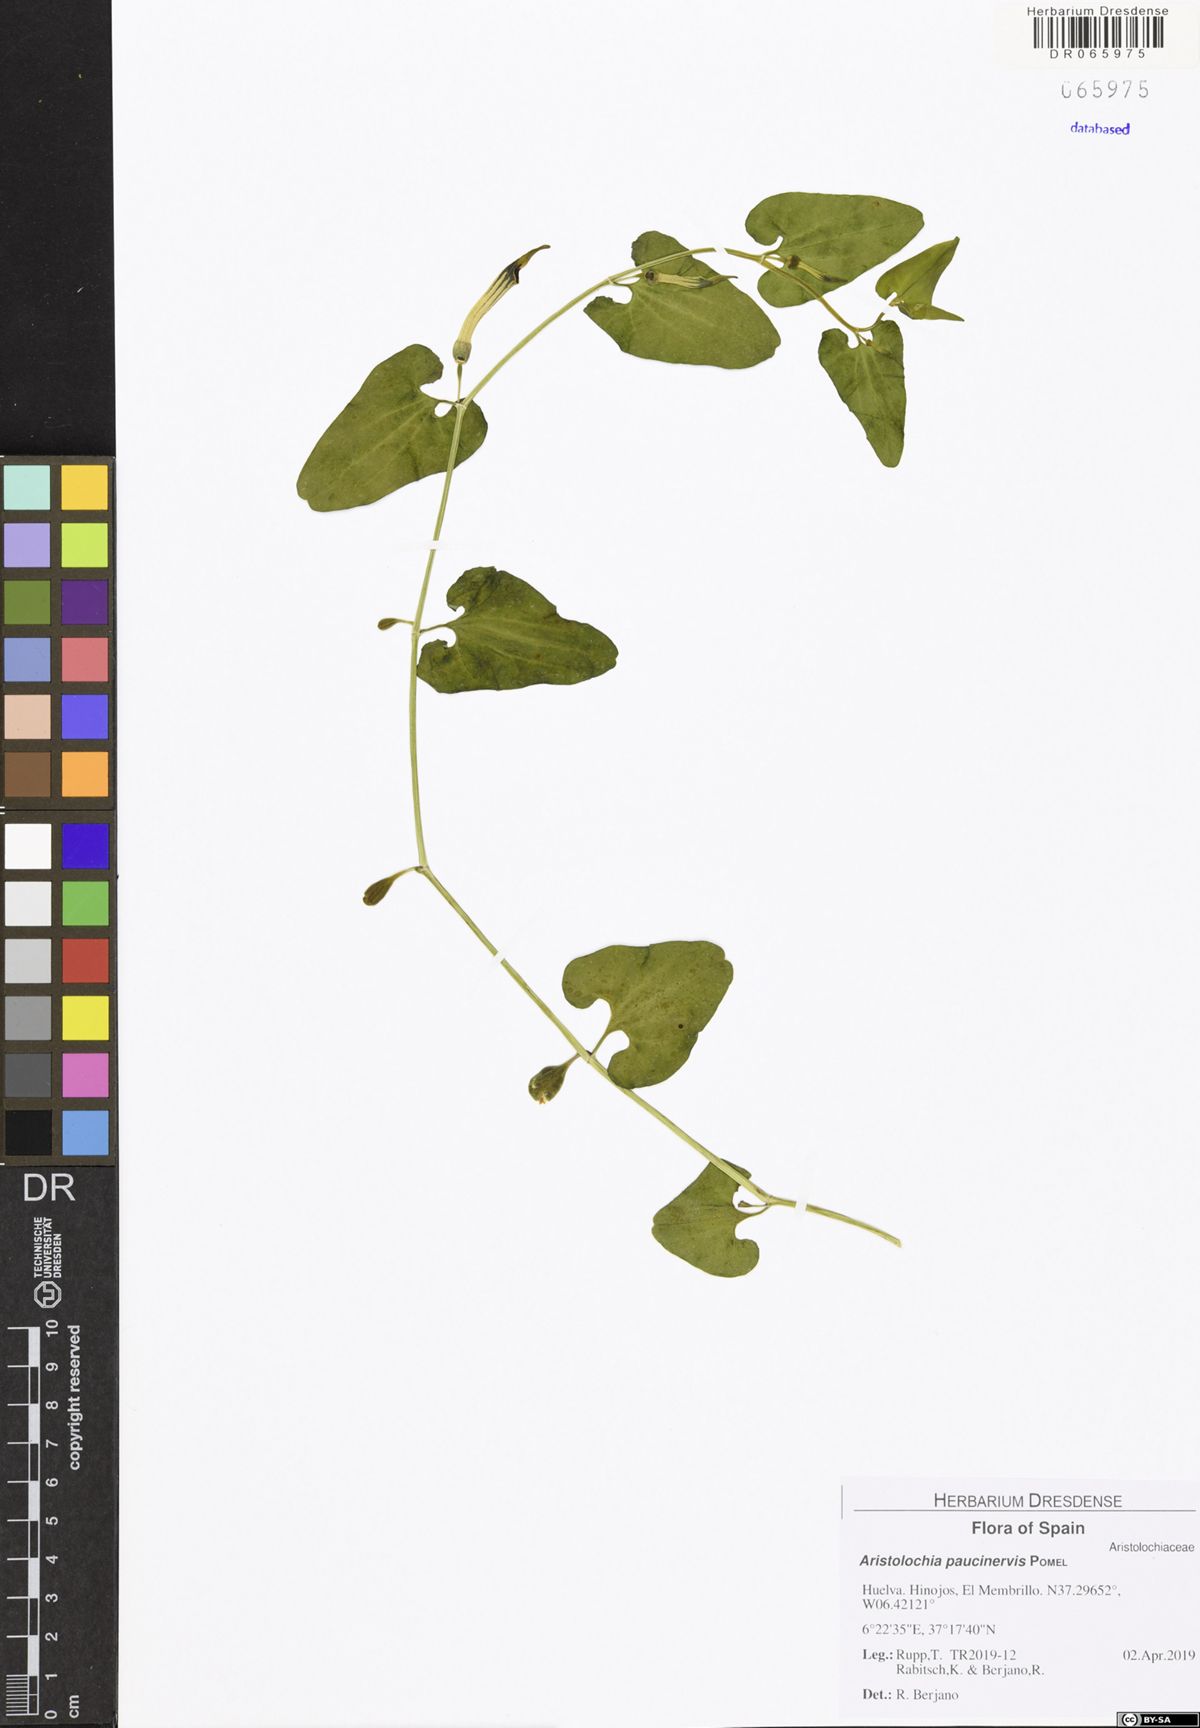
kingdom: Plantae
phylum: Tracheophyta
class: Magnoliopsida
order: Piperales
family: Aristolochiaceae
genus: Aristolochia
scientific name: Aristolochia paucinervis
